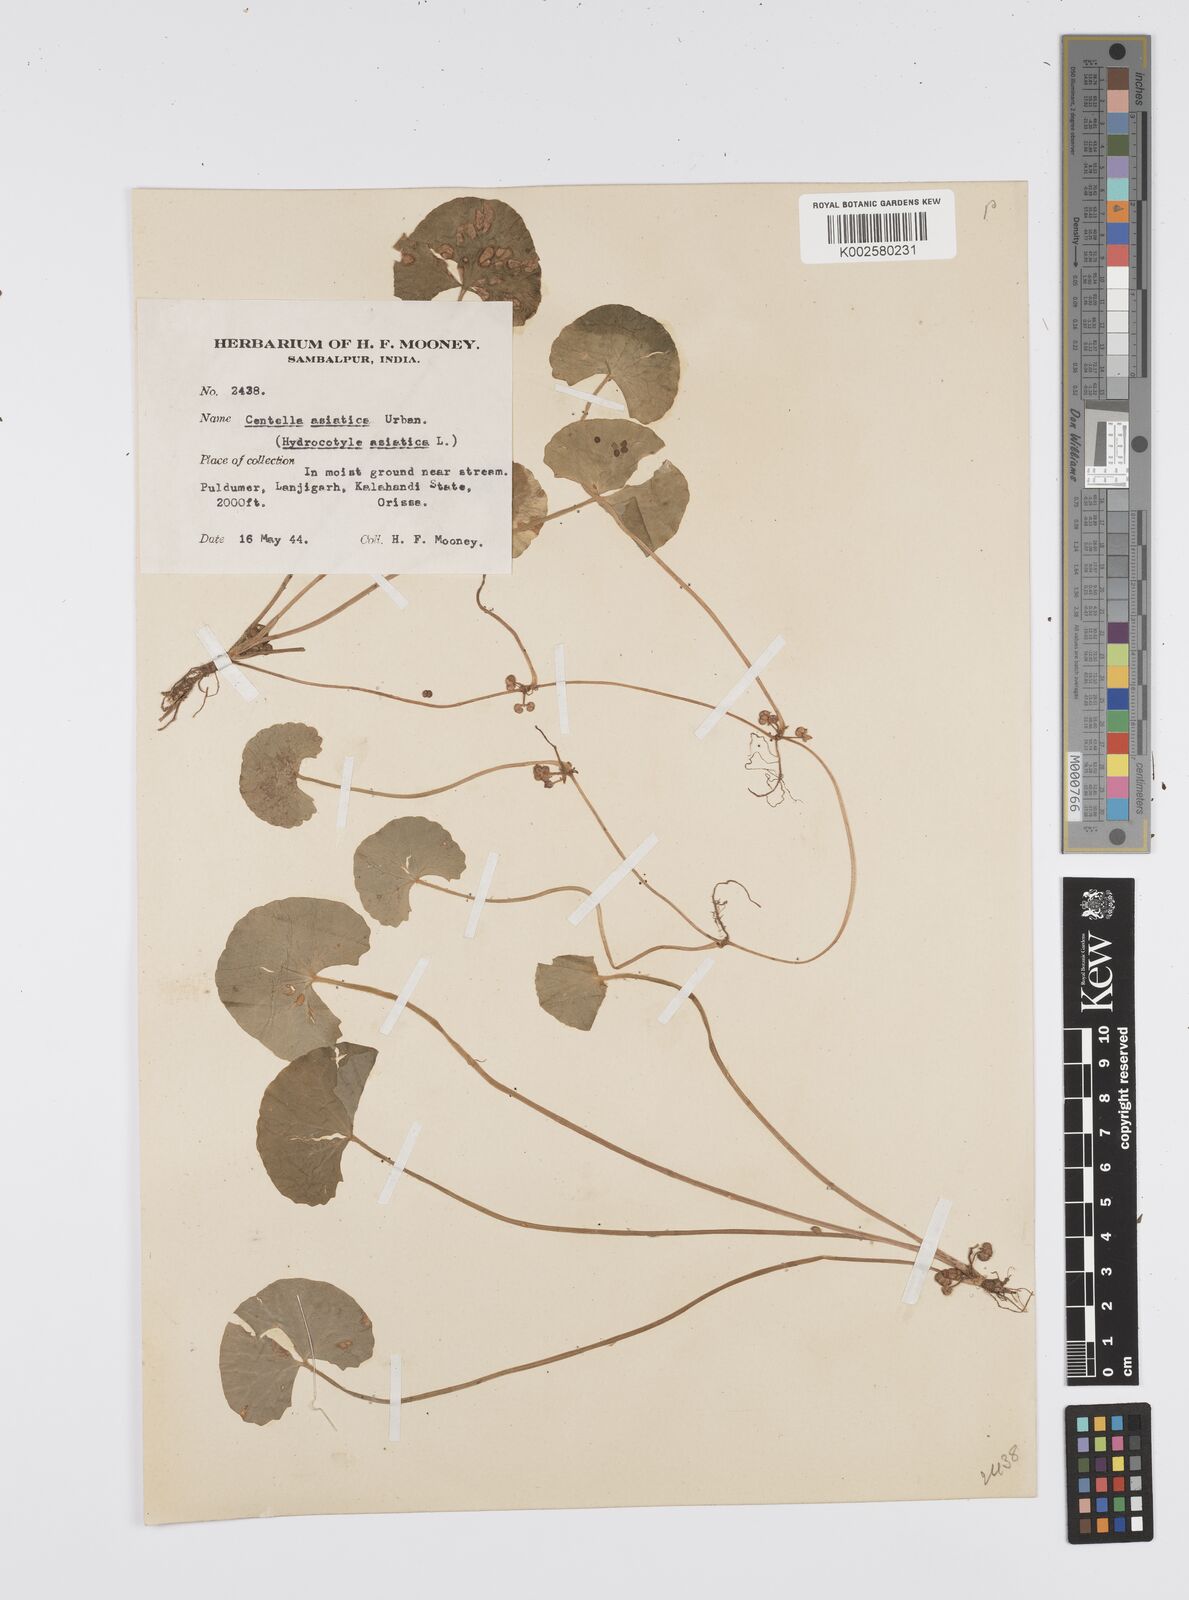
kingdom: Plantae
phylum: Tracheophyta
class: Magnoliopsida
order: Apiales
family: Apiaceae
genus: Centella
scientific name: Centella asiatica
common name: Spadeleaf
